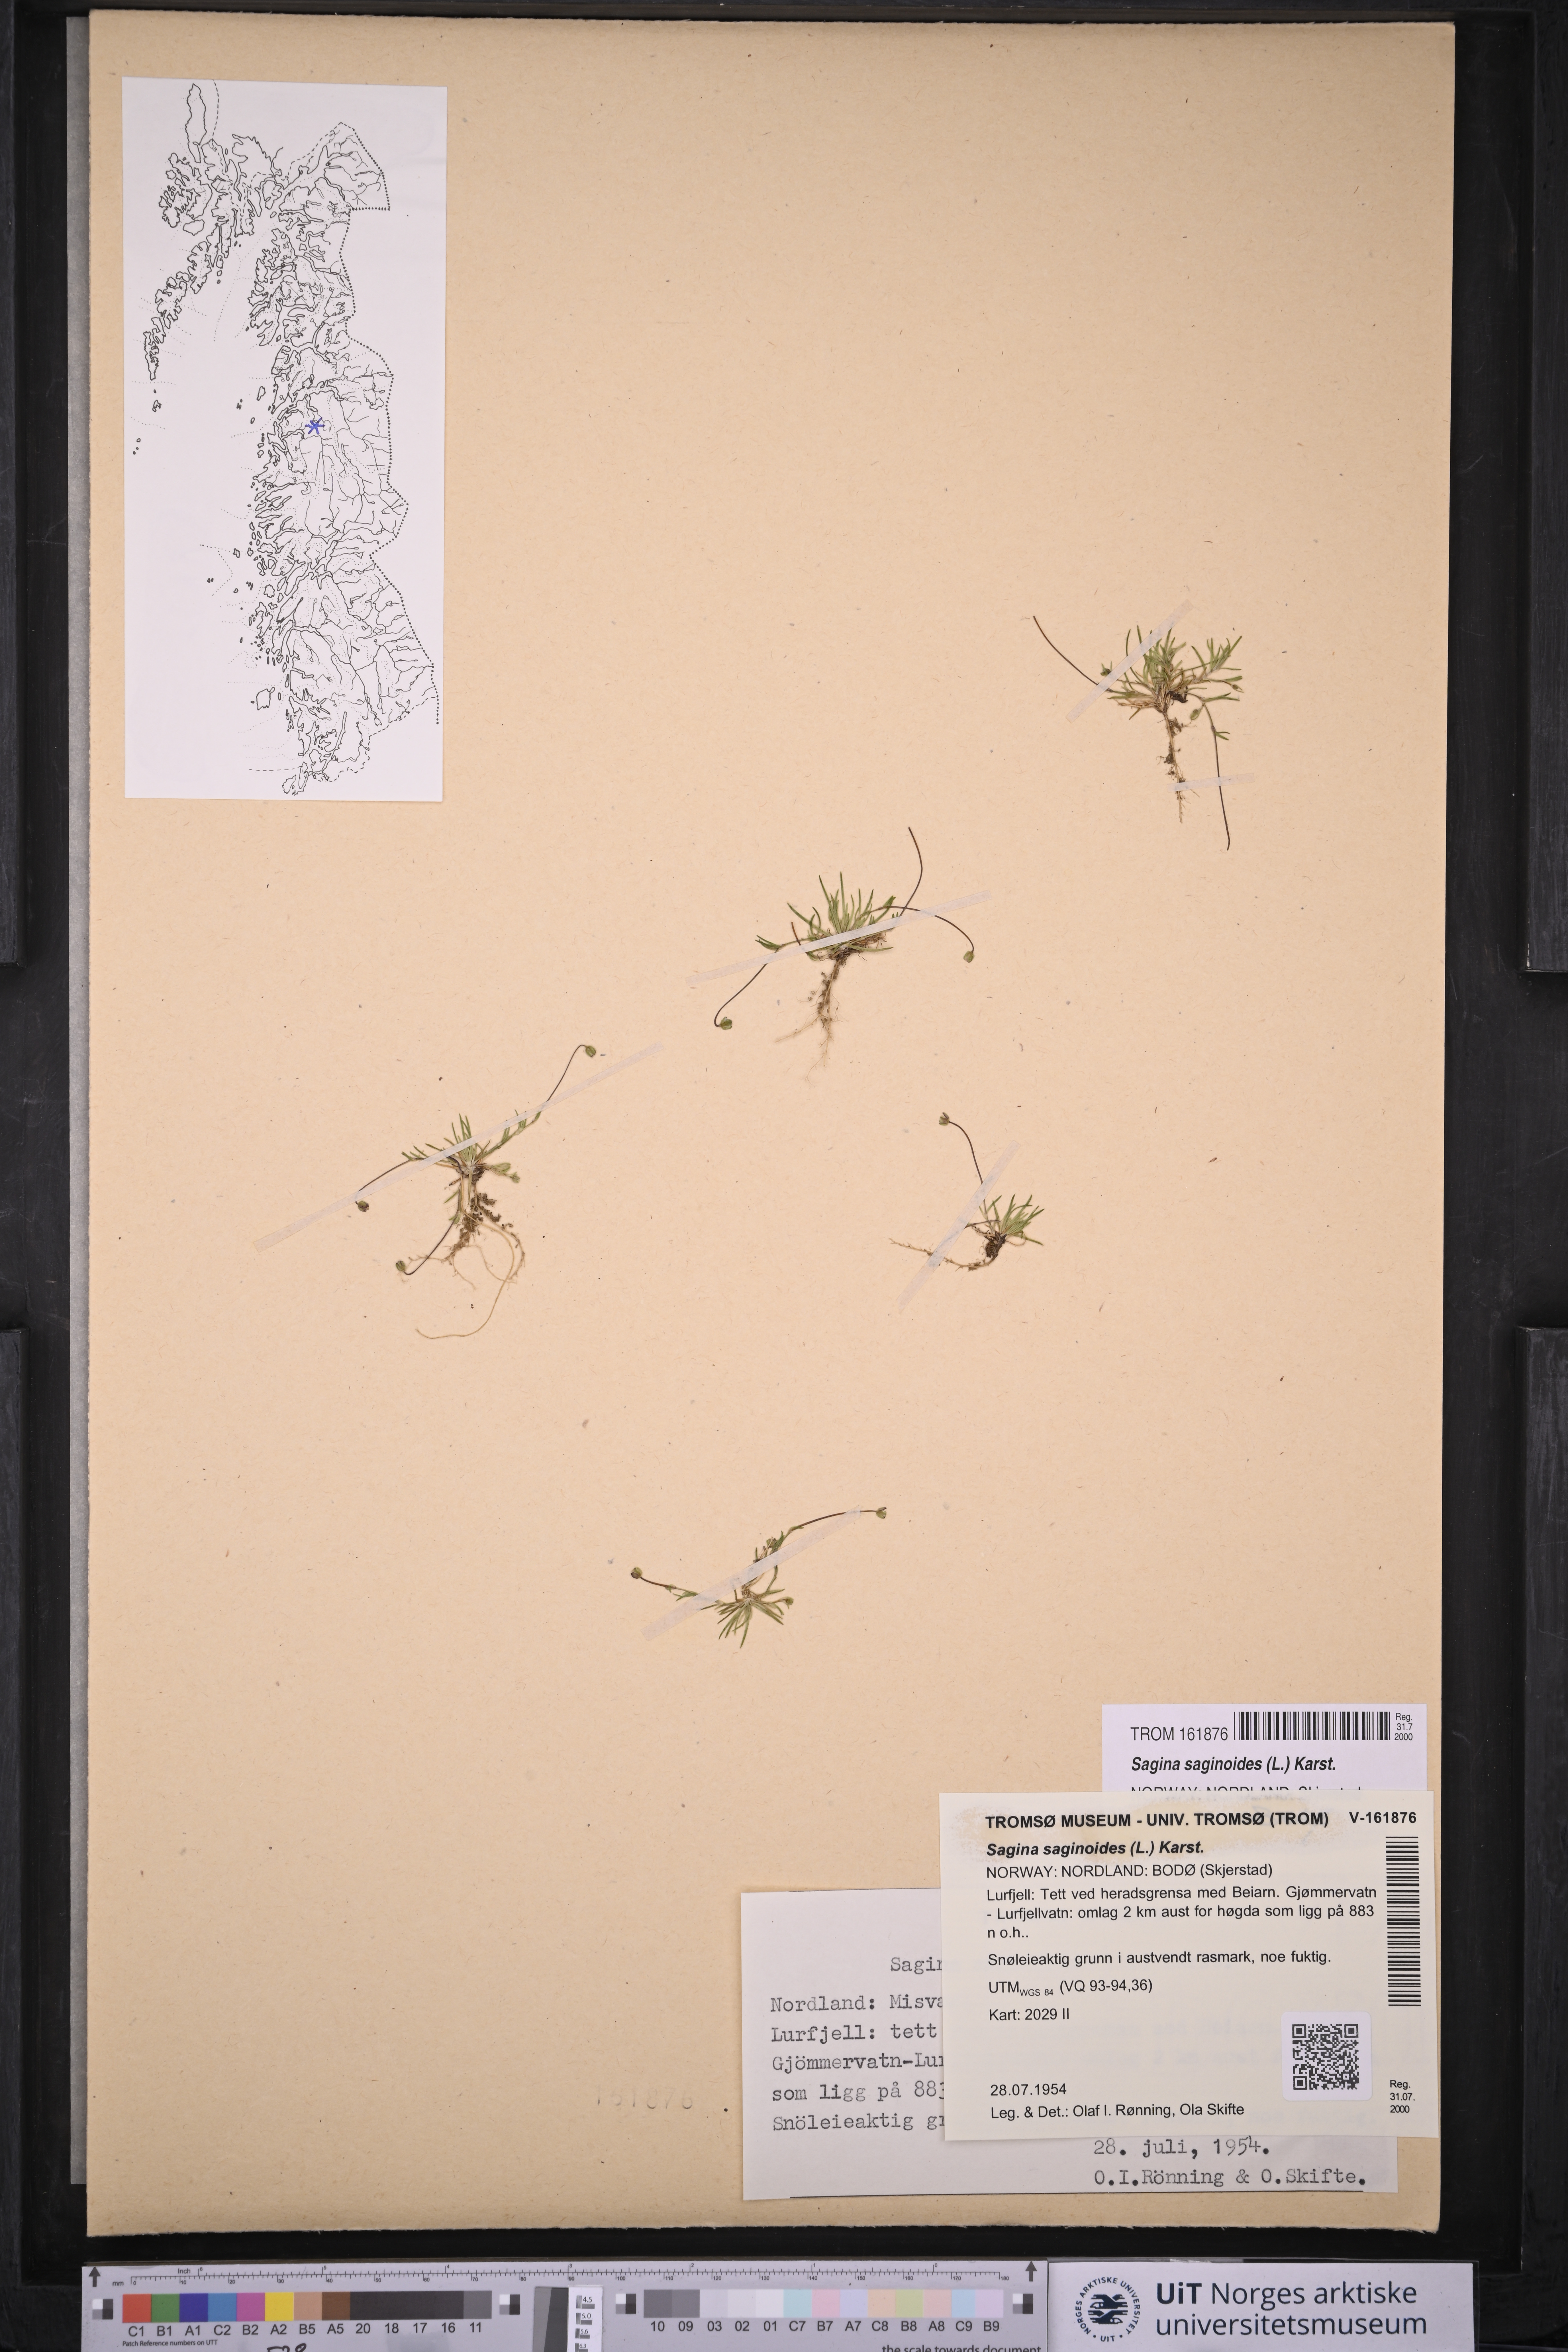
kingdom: Plantae
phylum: Tracheophyta
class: Magnoliopsida
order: Caryophyllales
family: Caryophyllaceae
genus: Sagina
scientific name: Sagina saginoides
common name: Alpine pearlwort
